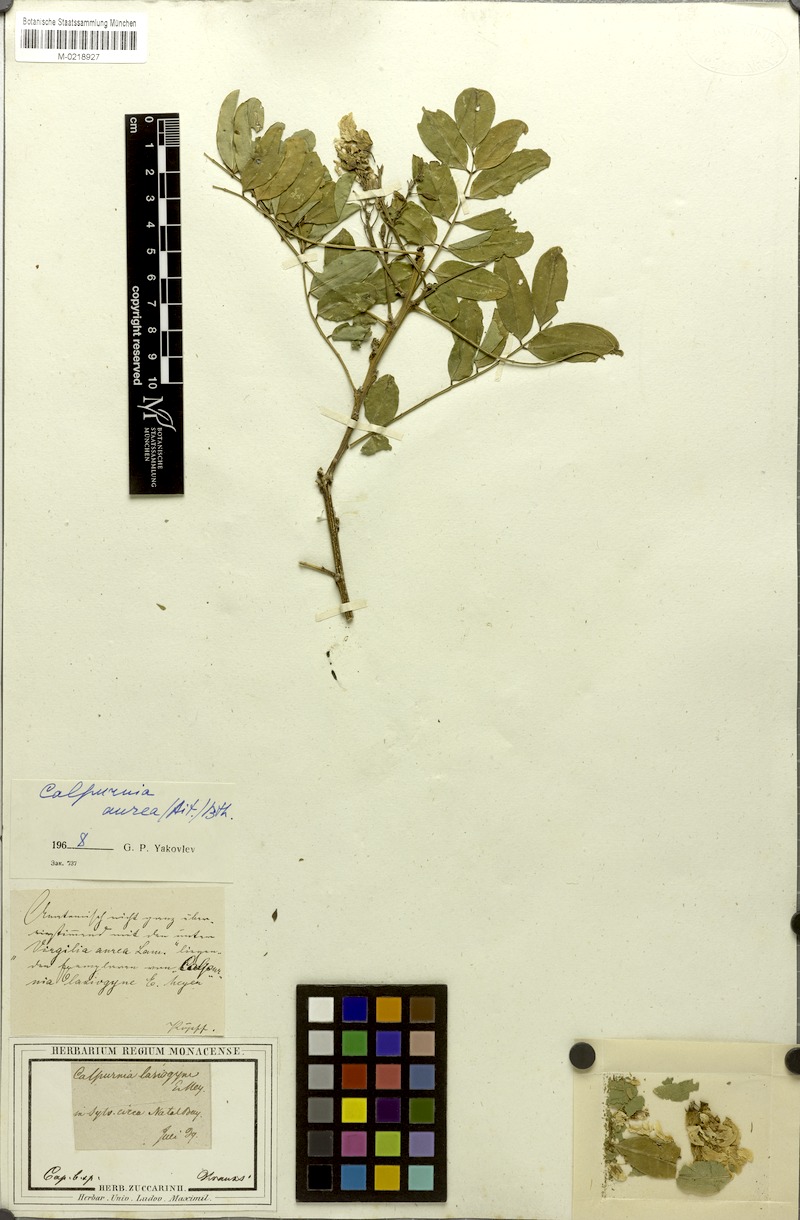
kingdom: Plantae
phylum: Tracheophyta
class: Magnoliopsida
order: Fabales
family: Fabaceae
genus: Calpurnia
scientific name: Calpurnia aurea
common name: Wild laburnum
